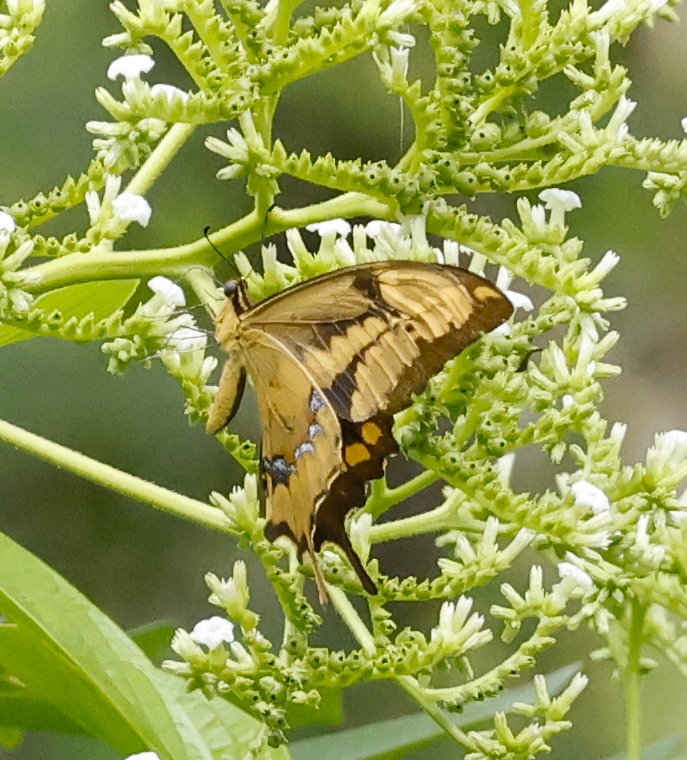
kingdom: Animalia
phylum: Arthropoda
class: Insecta
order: Lepidoptera
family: Papilionidae
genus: Papilio
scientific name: Papilio aristodemus
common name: Schaus' Swallowtail
